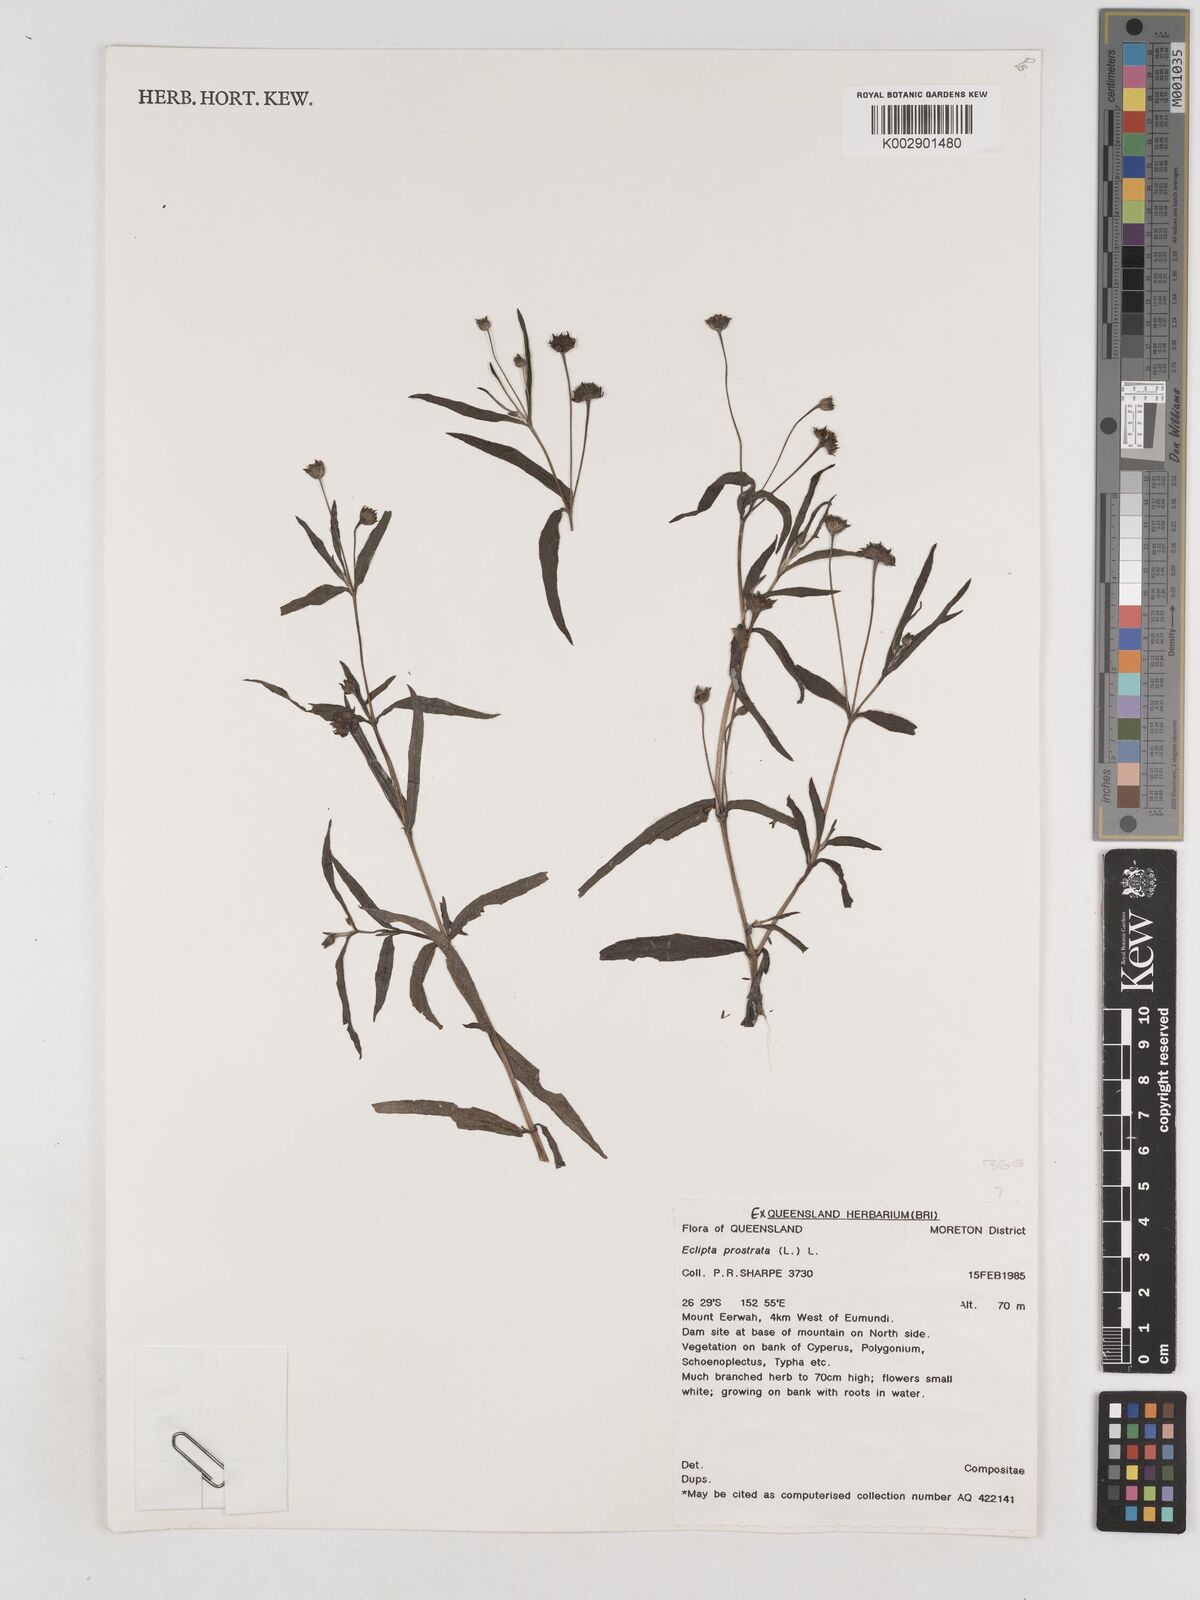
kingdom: Plantae
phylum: Tracheophyta
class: Magnoliopsida
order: Asterales
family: Asteraceae
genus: Eclipta
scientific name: Eclipta prostrata
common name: False daisy
